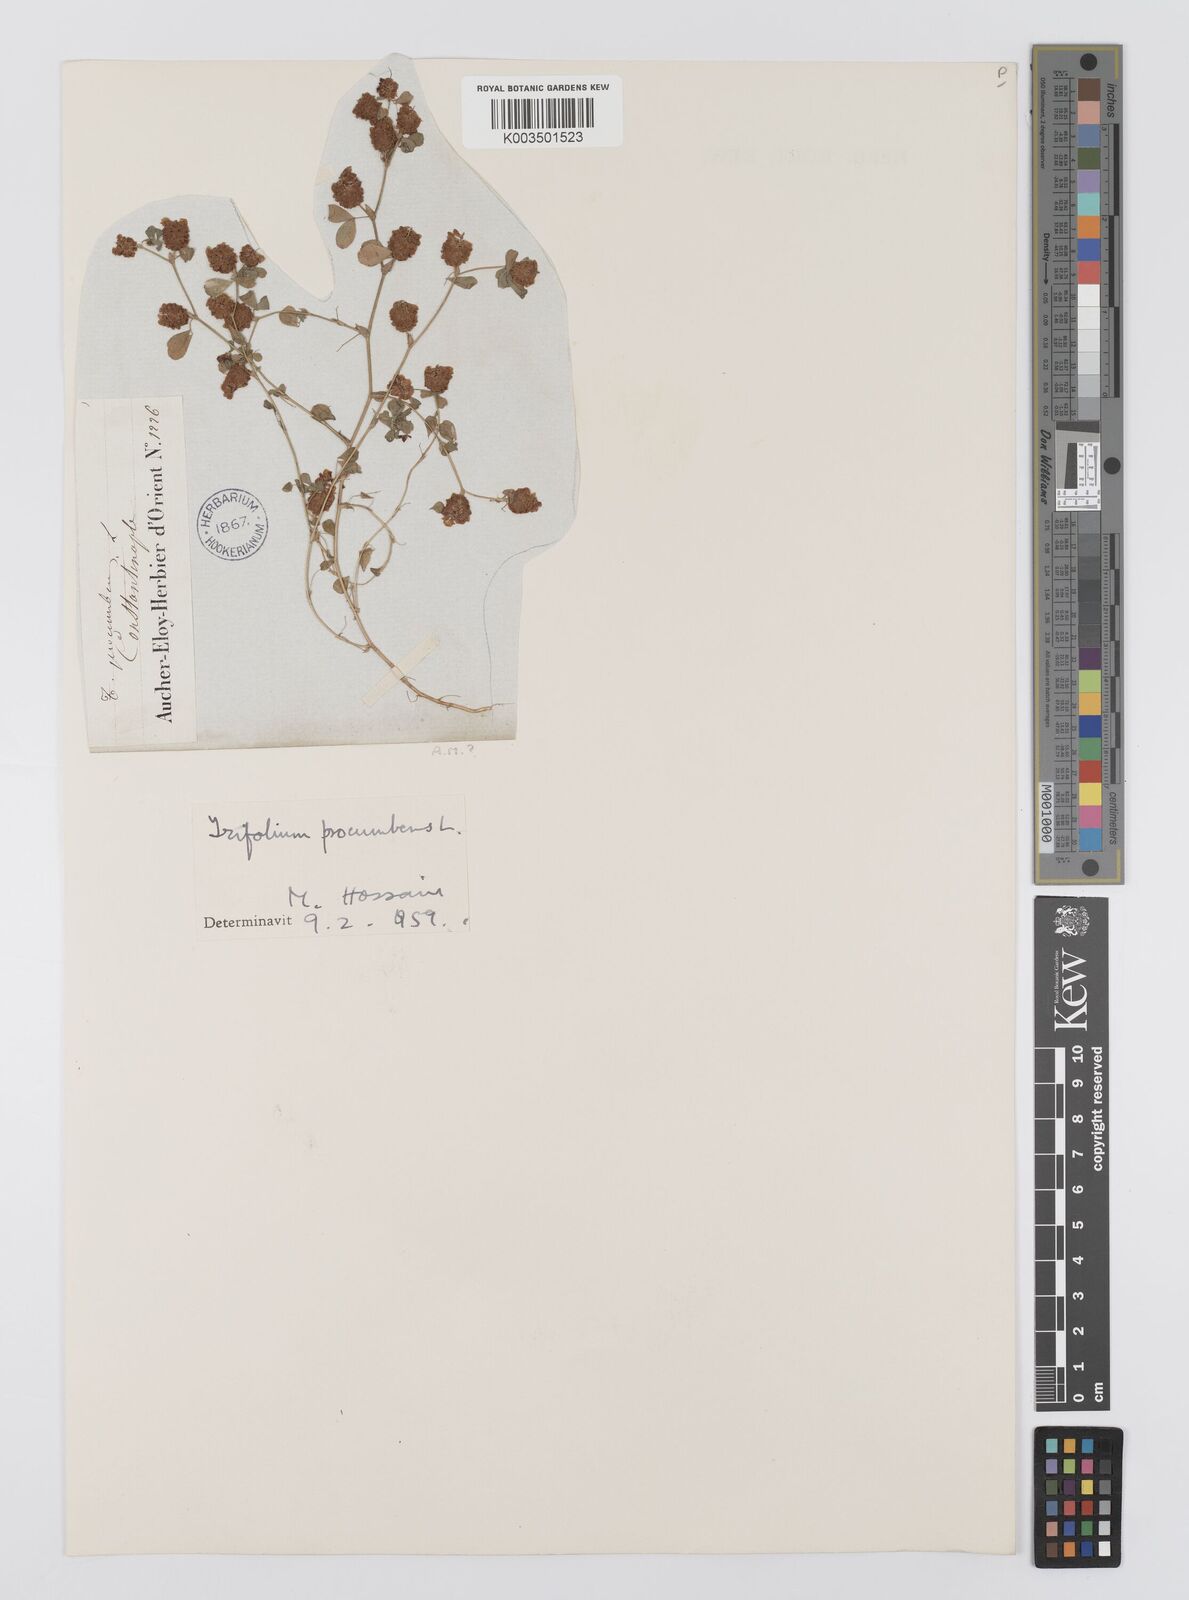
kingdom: Plantae
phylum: Tracheophyta
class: Magnoliopsida
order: Fabales
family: Fabaceae
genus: Trifolium
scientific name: Trifolium campestre
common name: Field clover
